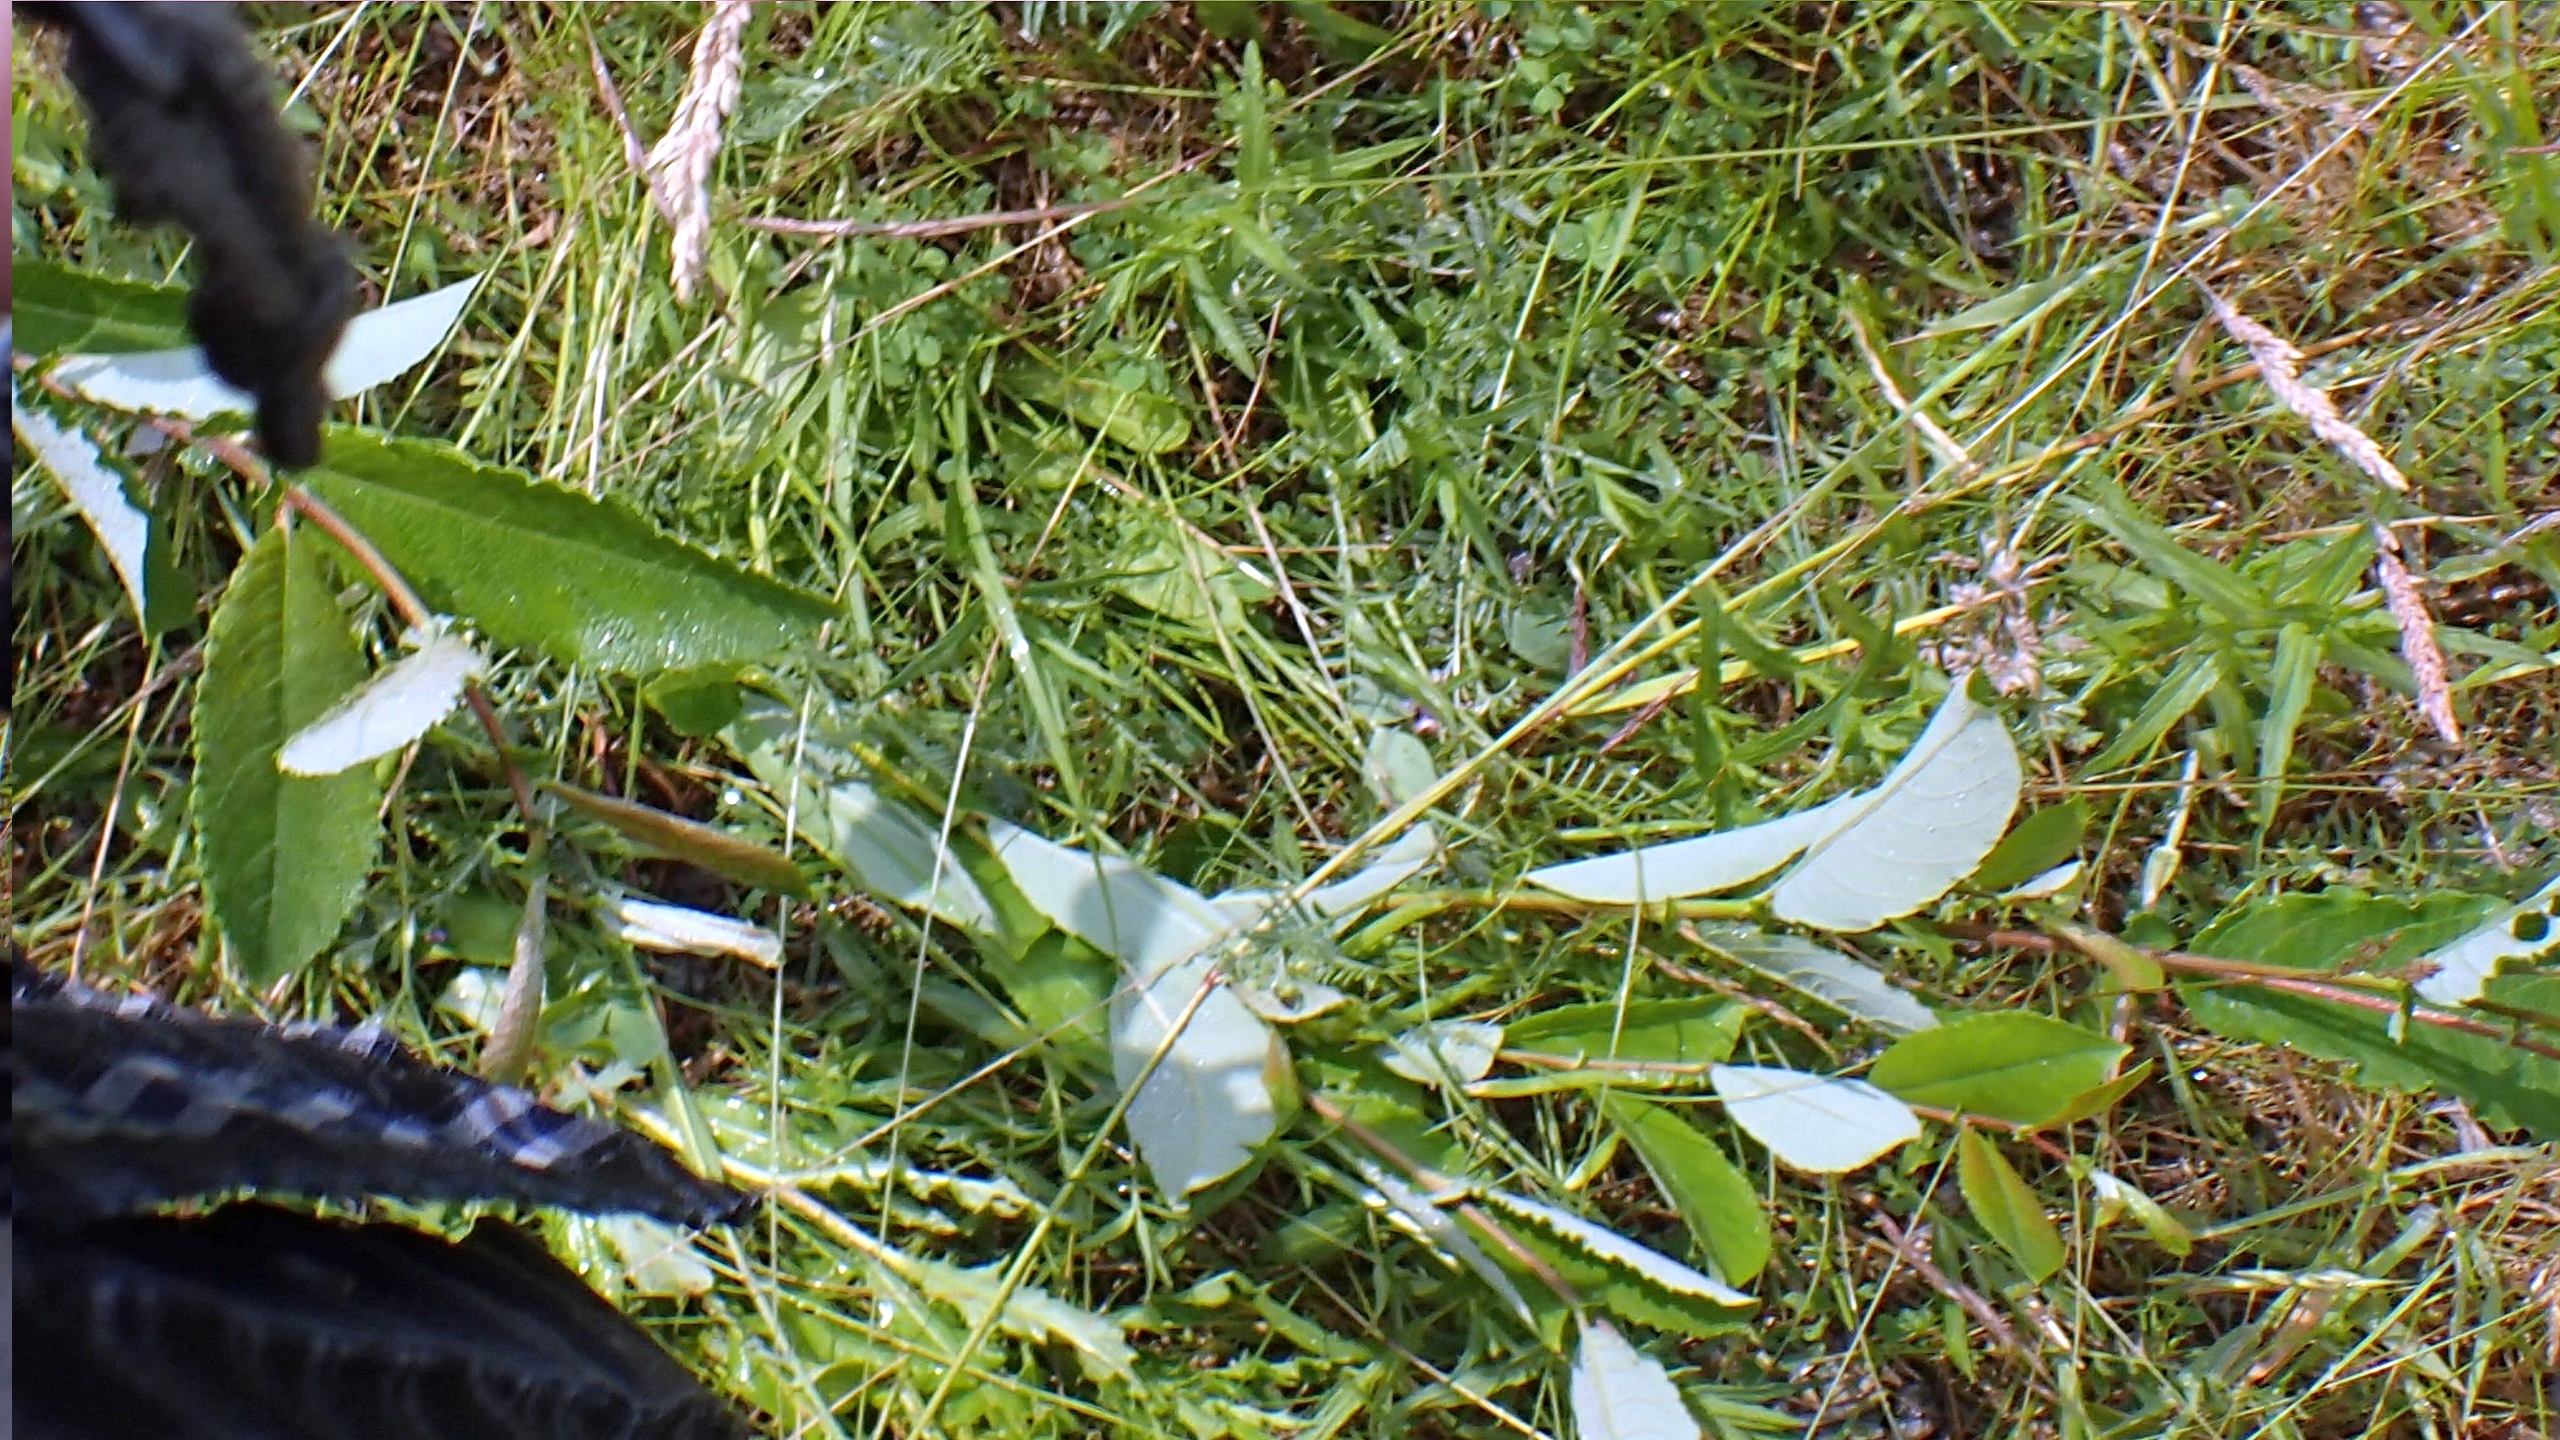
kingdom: Plantae
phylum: Tracheophyta
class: Magnoliopsida
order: Malpighiales
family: Salicaceae
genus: Salix
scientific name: Salix myrsinifolia
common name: Sort pil
